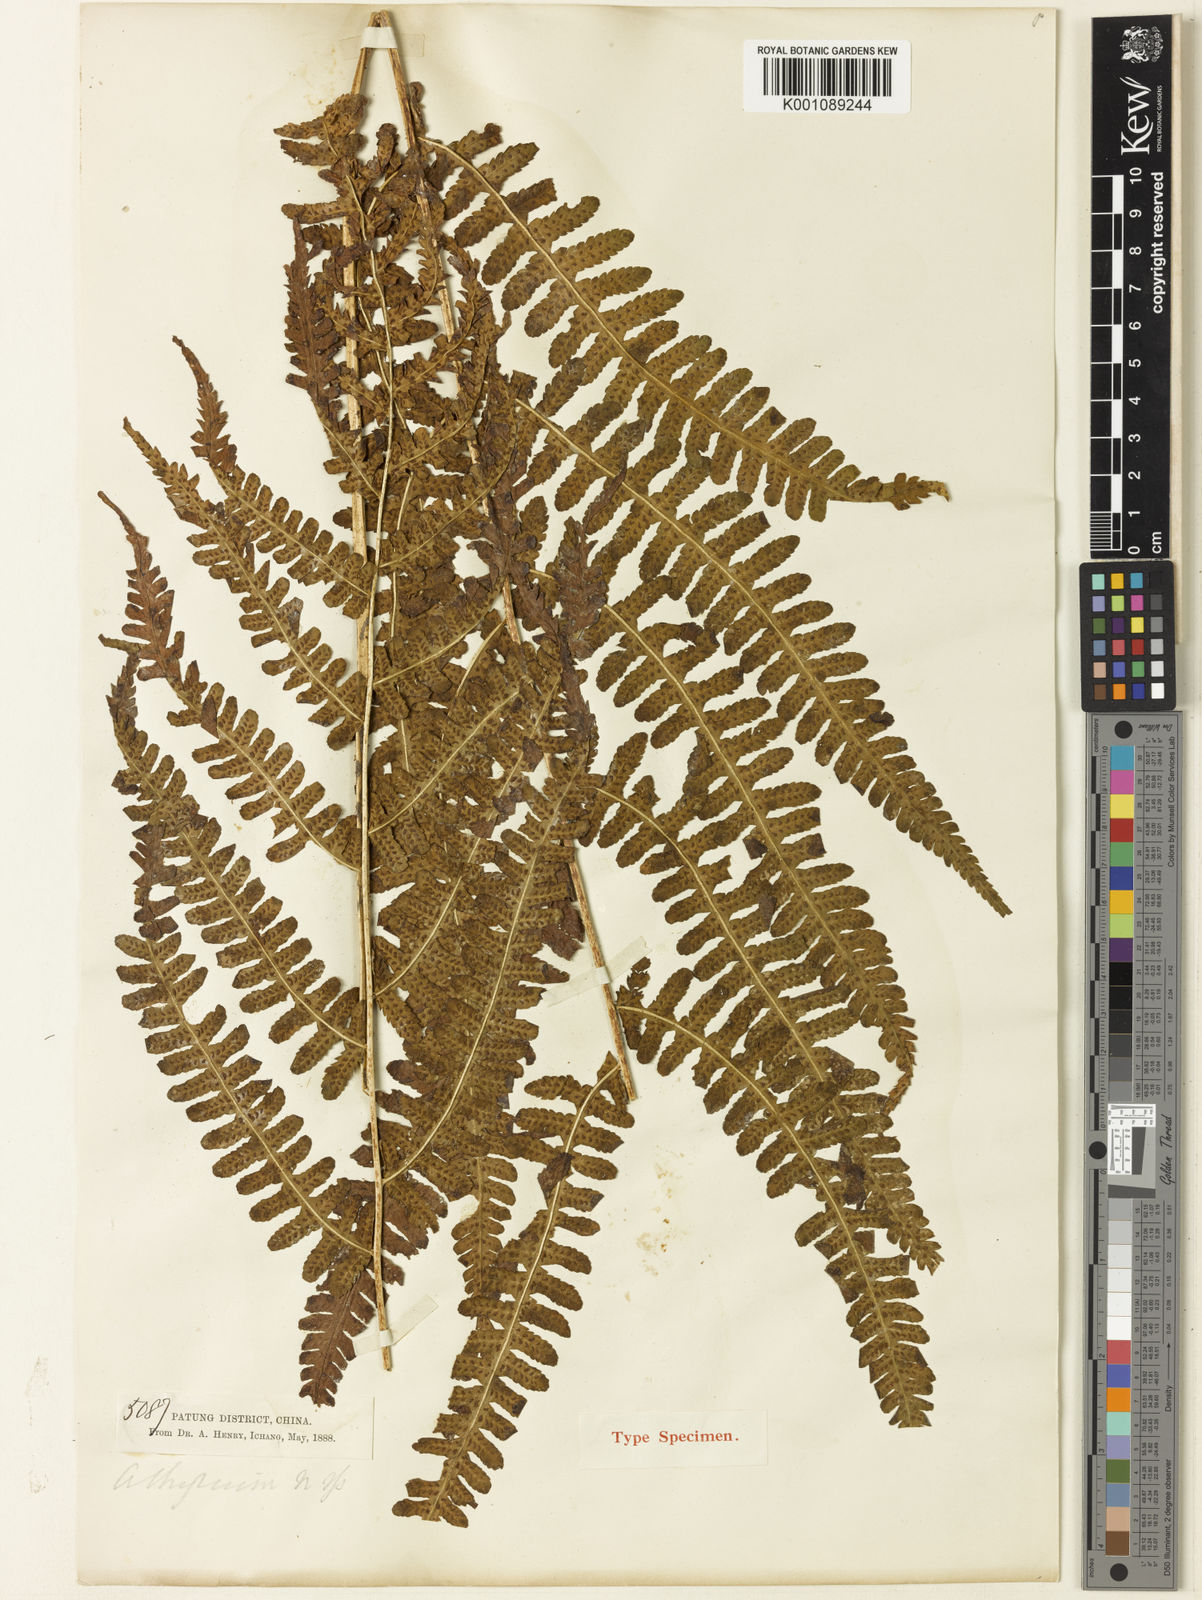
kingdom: Plantae
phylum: Tracheophyta
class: Polypodiopsida
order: Polypodiales
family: Athyriaceae
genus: Deparia
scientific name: Deparia henryi
